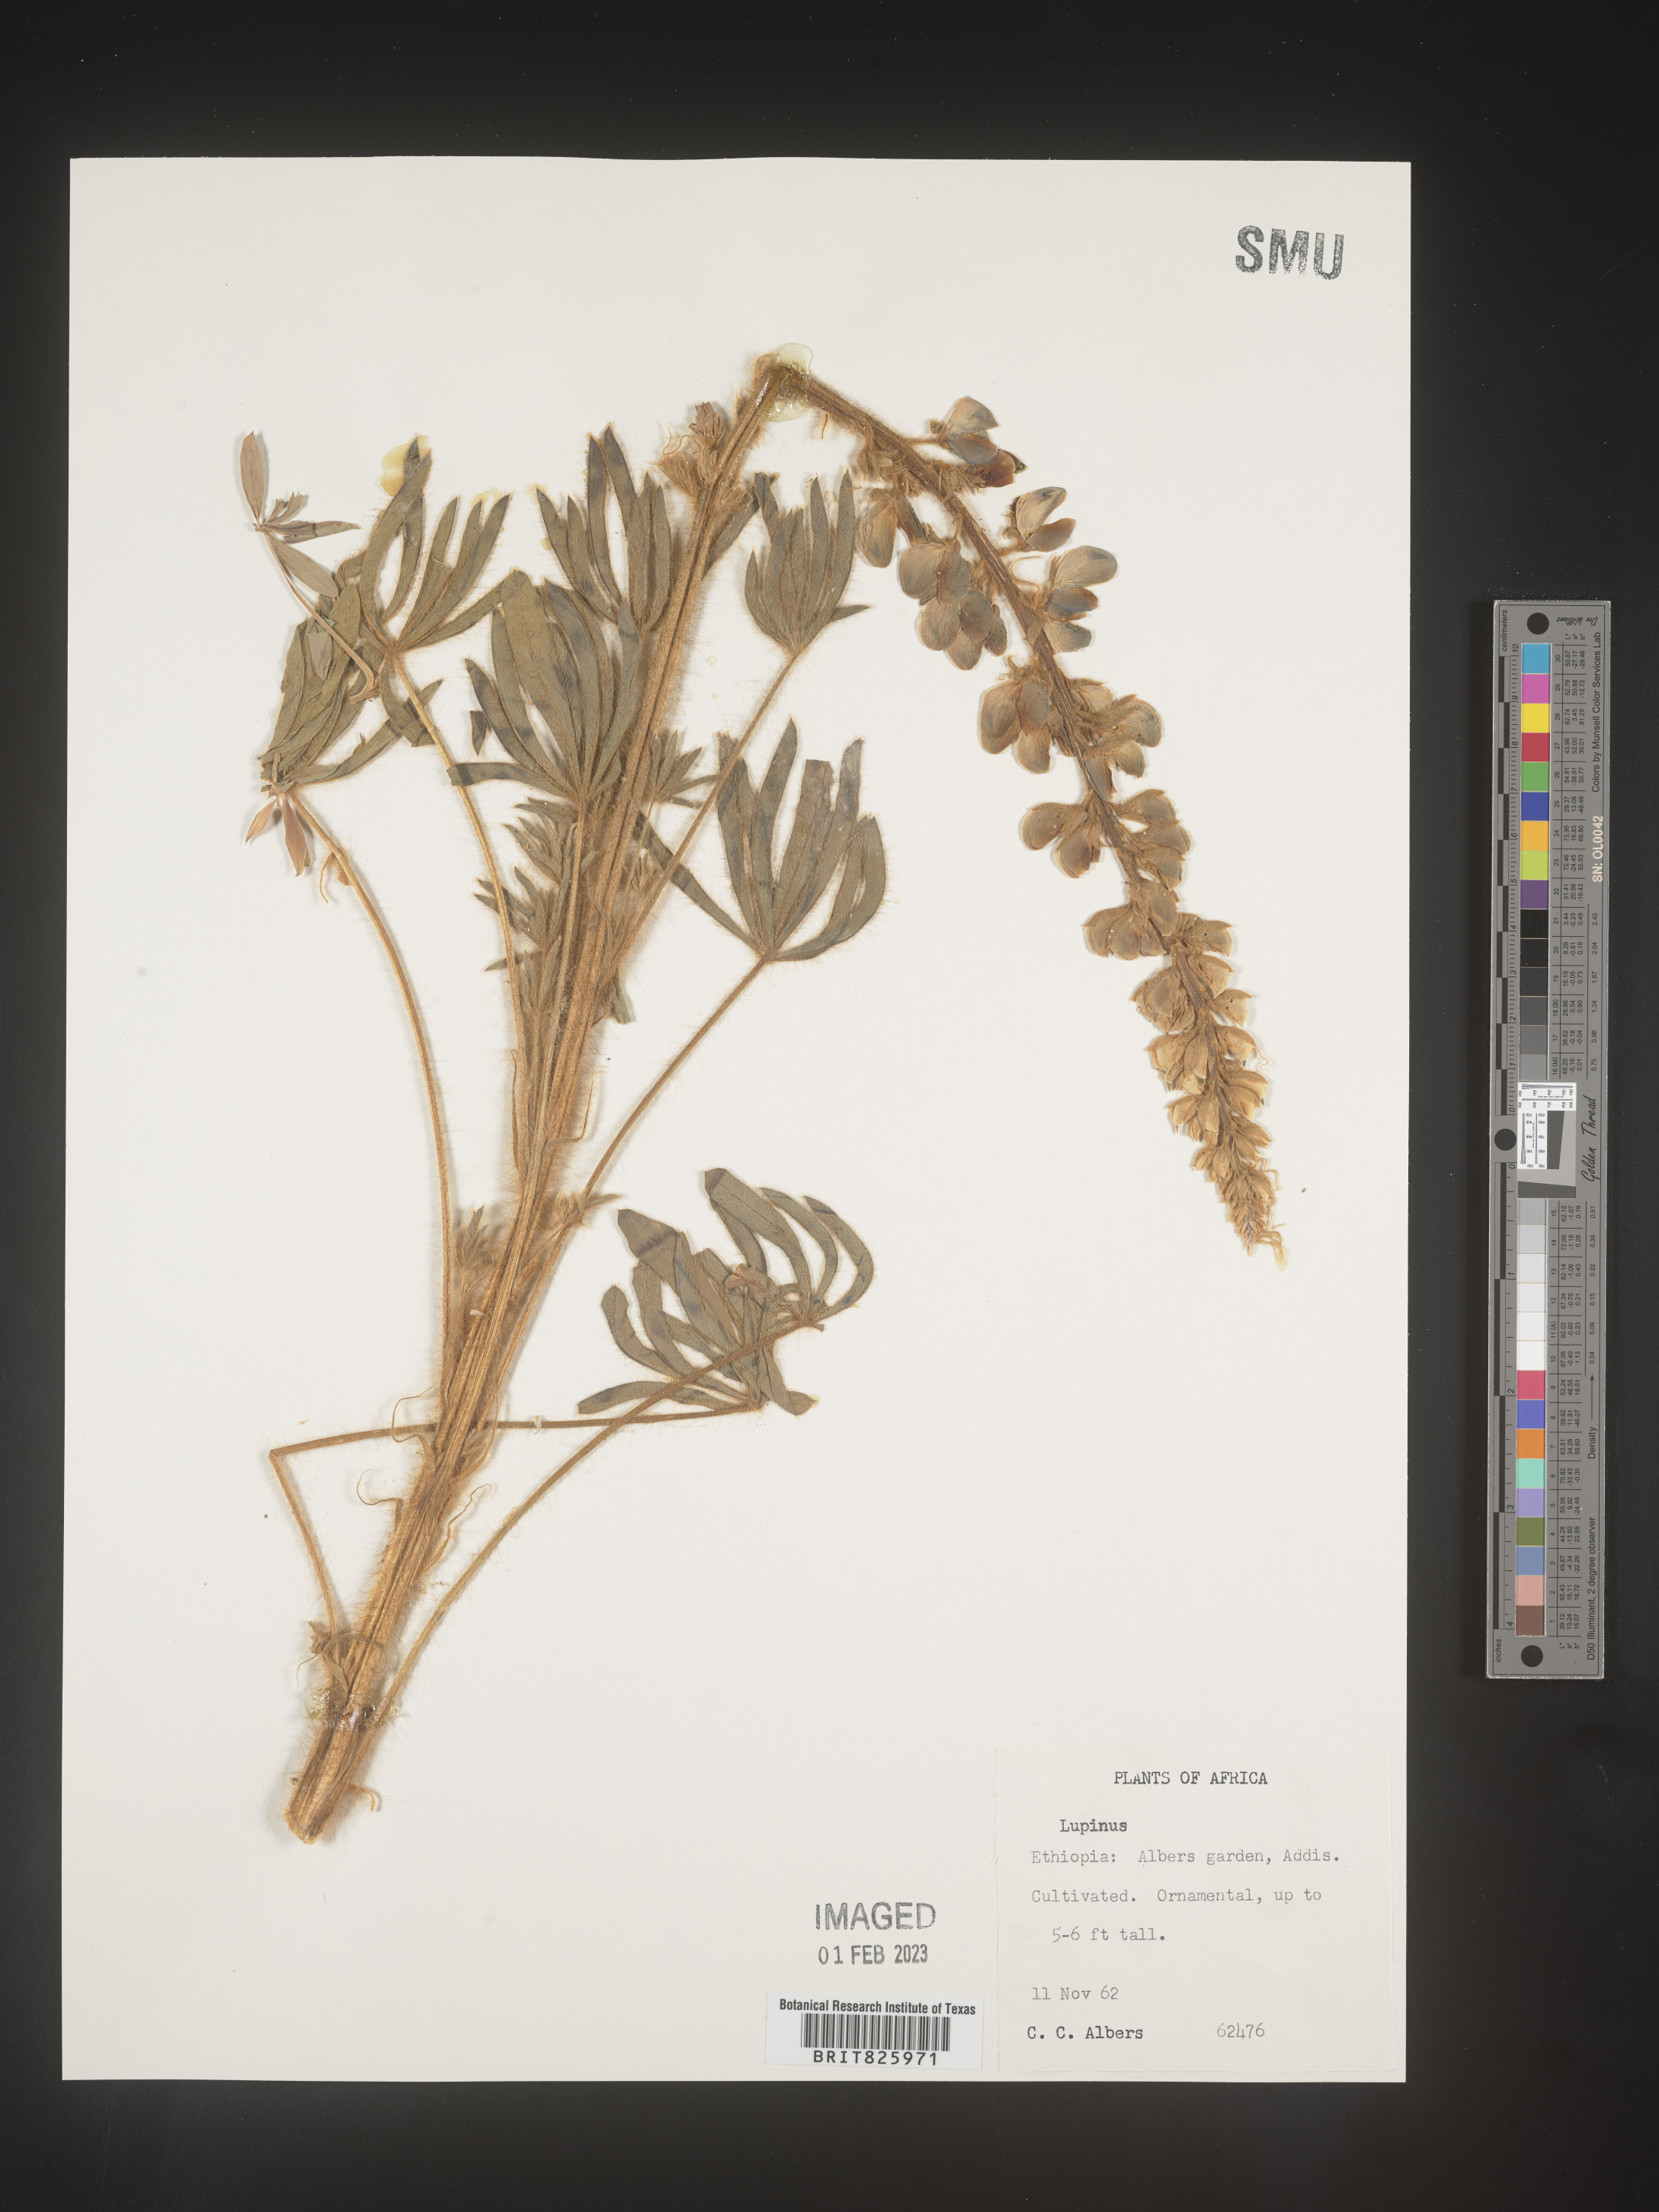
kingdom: Plantae
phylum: Tracheophyta
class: Magnoliopsida
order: Fabales
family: Fabaceae
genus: Lupinus
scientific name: Lupinus
